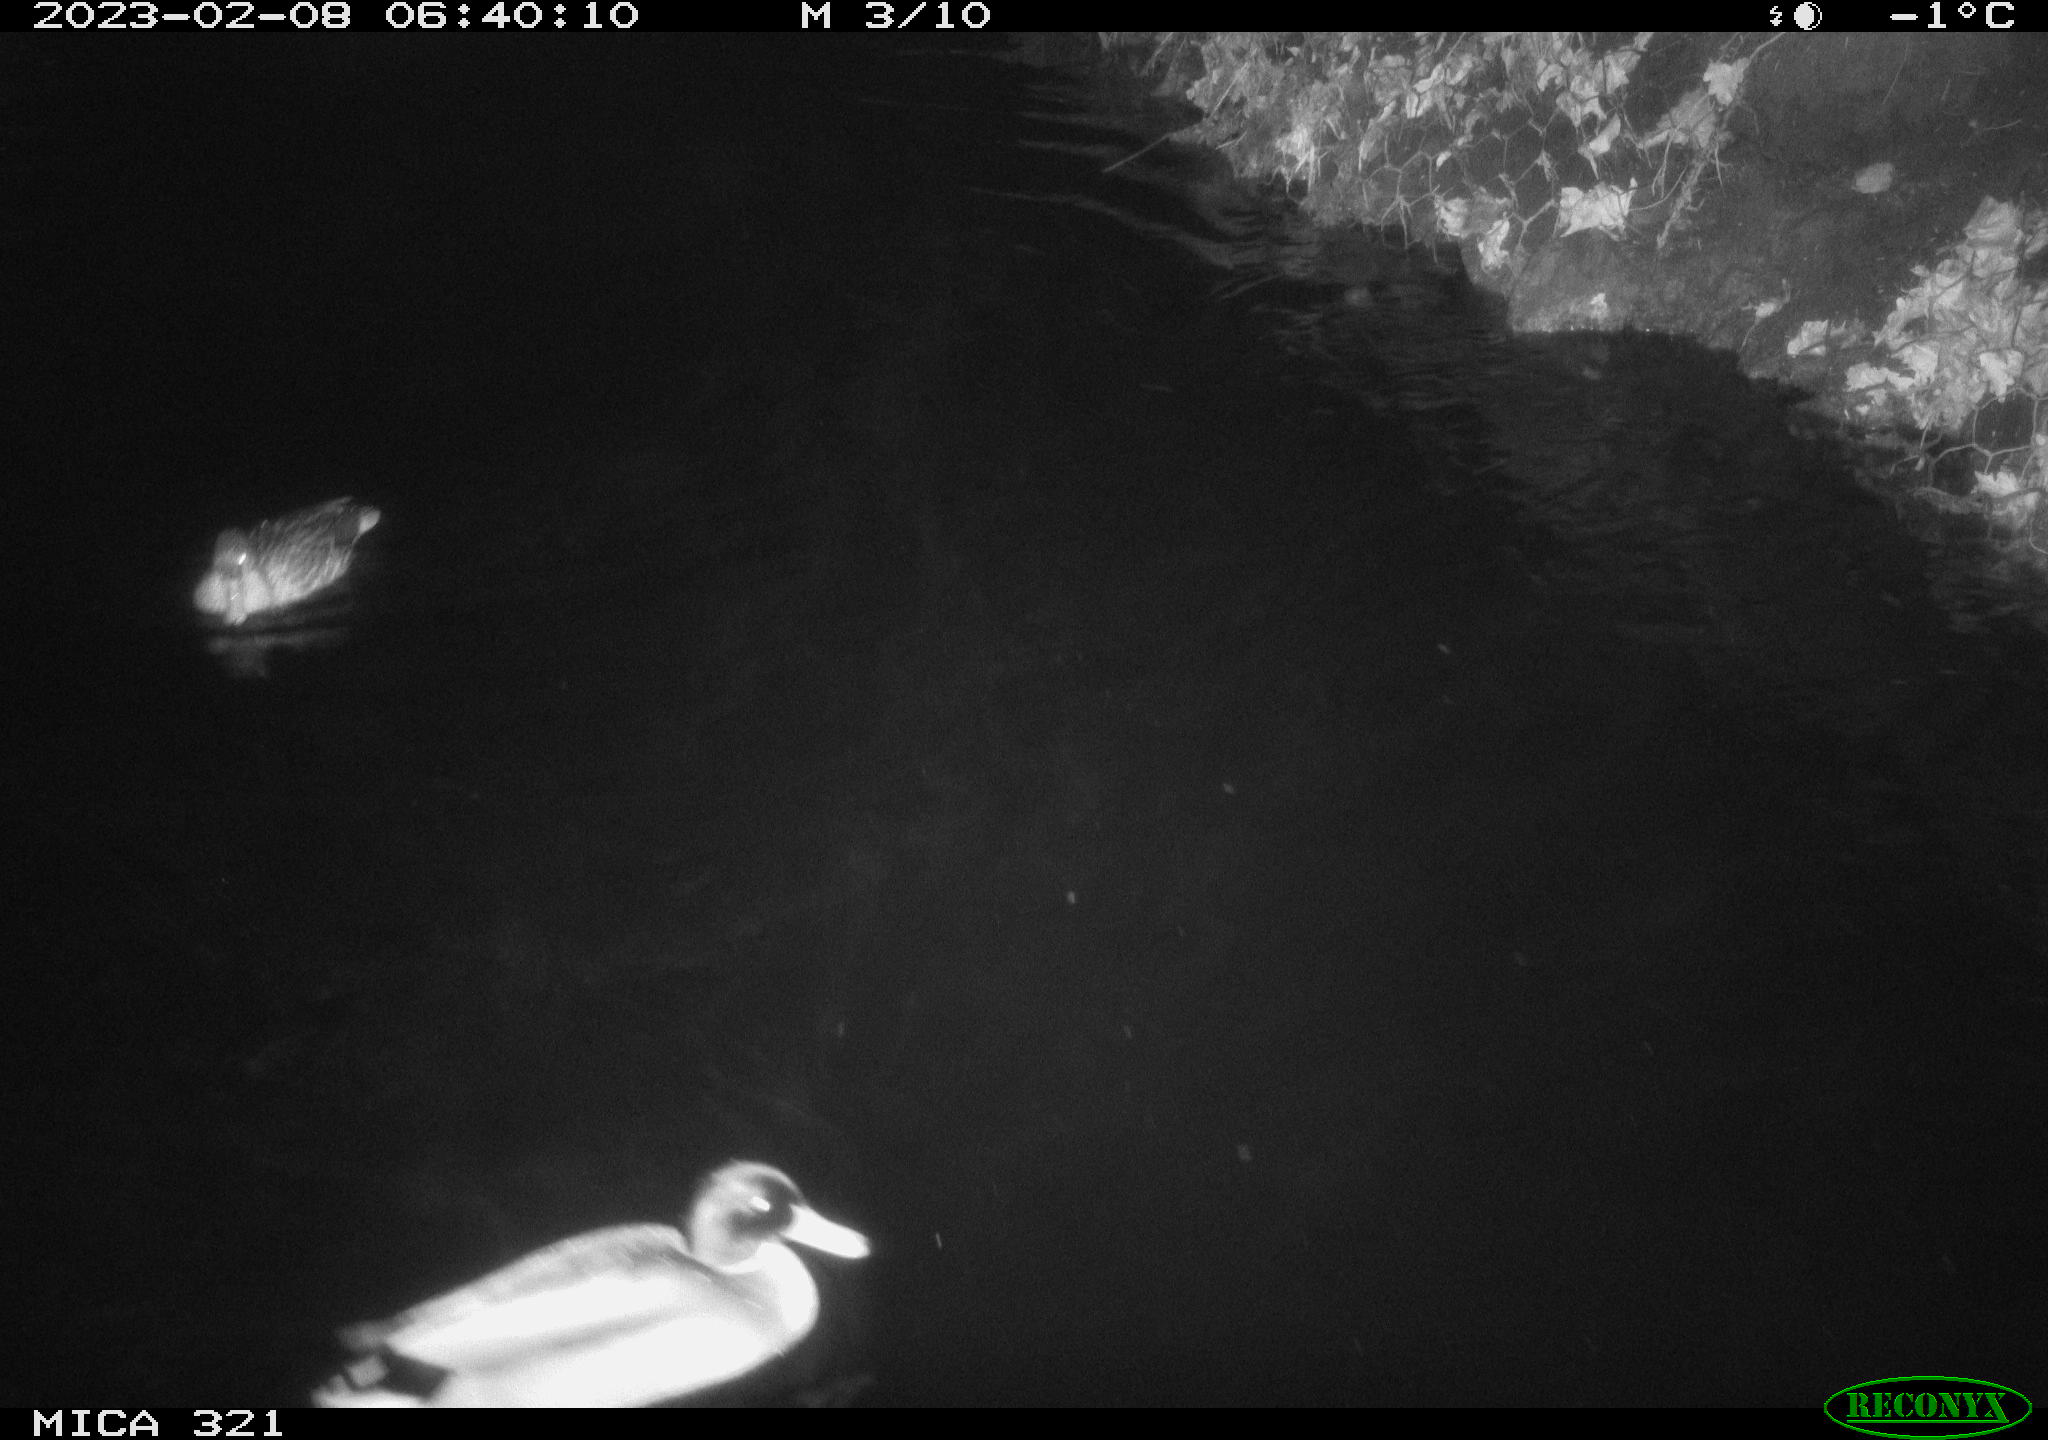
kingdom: Animalia
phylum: Chordata
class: Aves
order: Anseriformes
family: Anatidae
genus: Anas
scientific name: Anas
